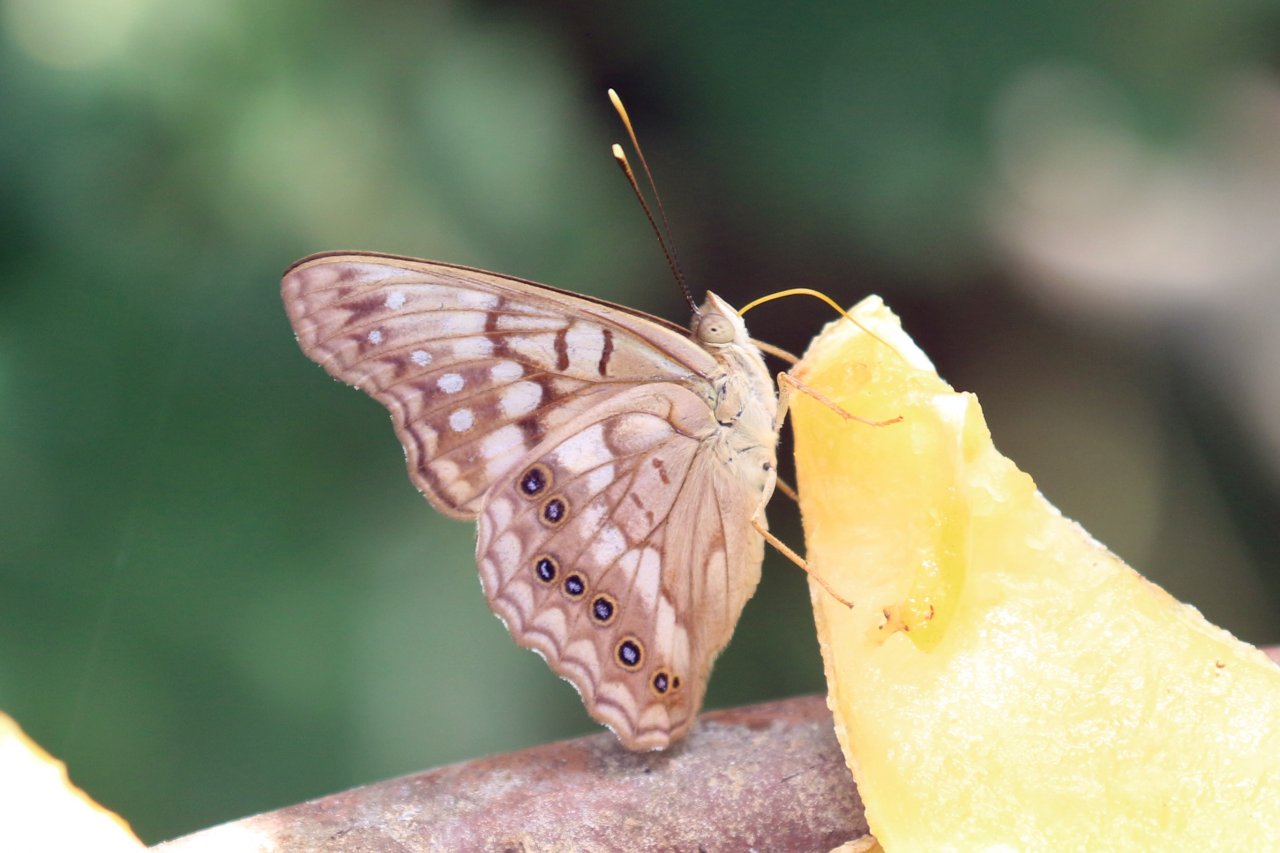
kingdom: Animalia
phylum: Arthropoda
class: Insecta
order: Lepidoptera
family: Nymphalidae
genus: Asterocampa
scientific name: Asterocampa clyton
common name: Tawny Emperor
